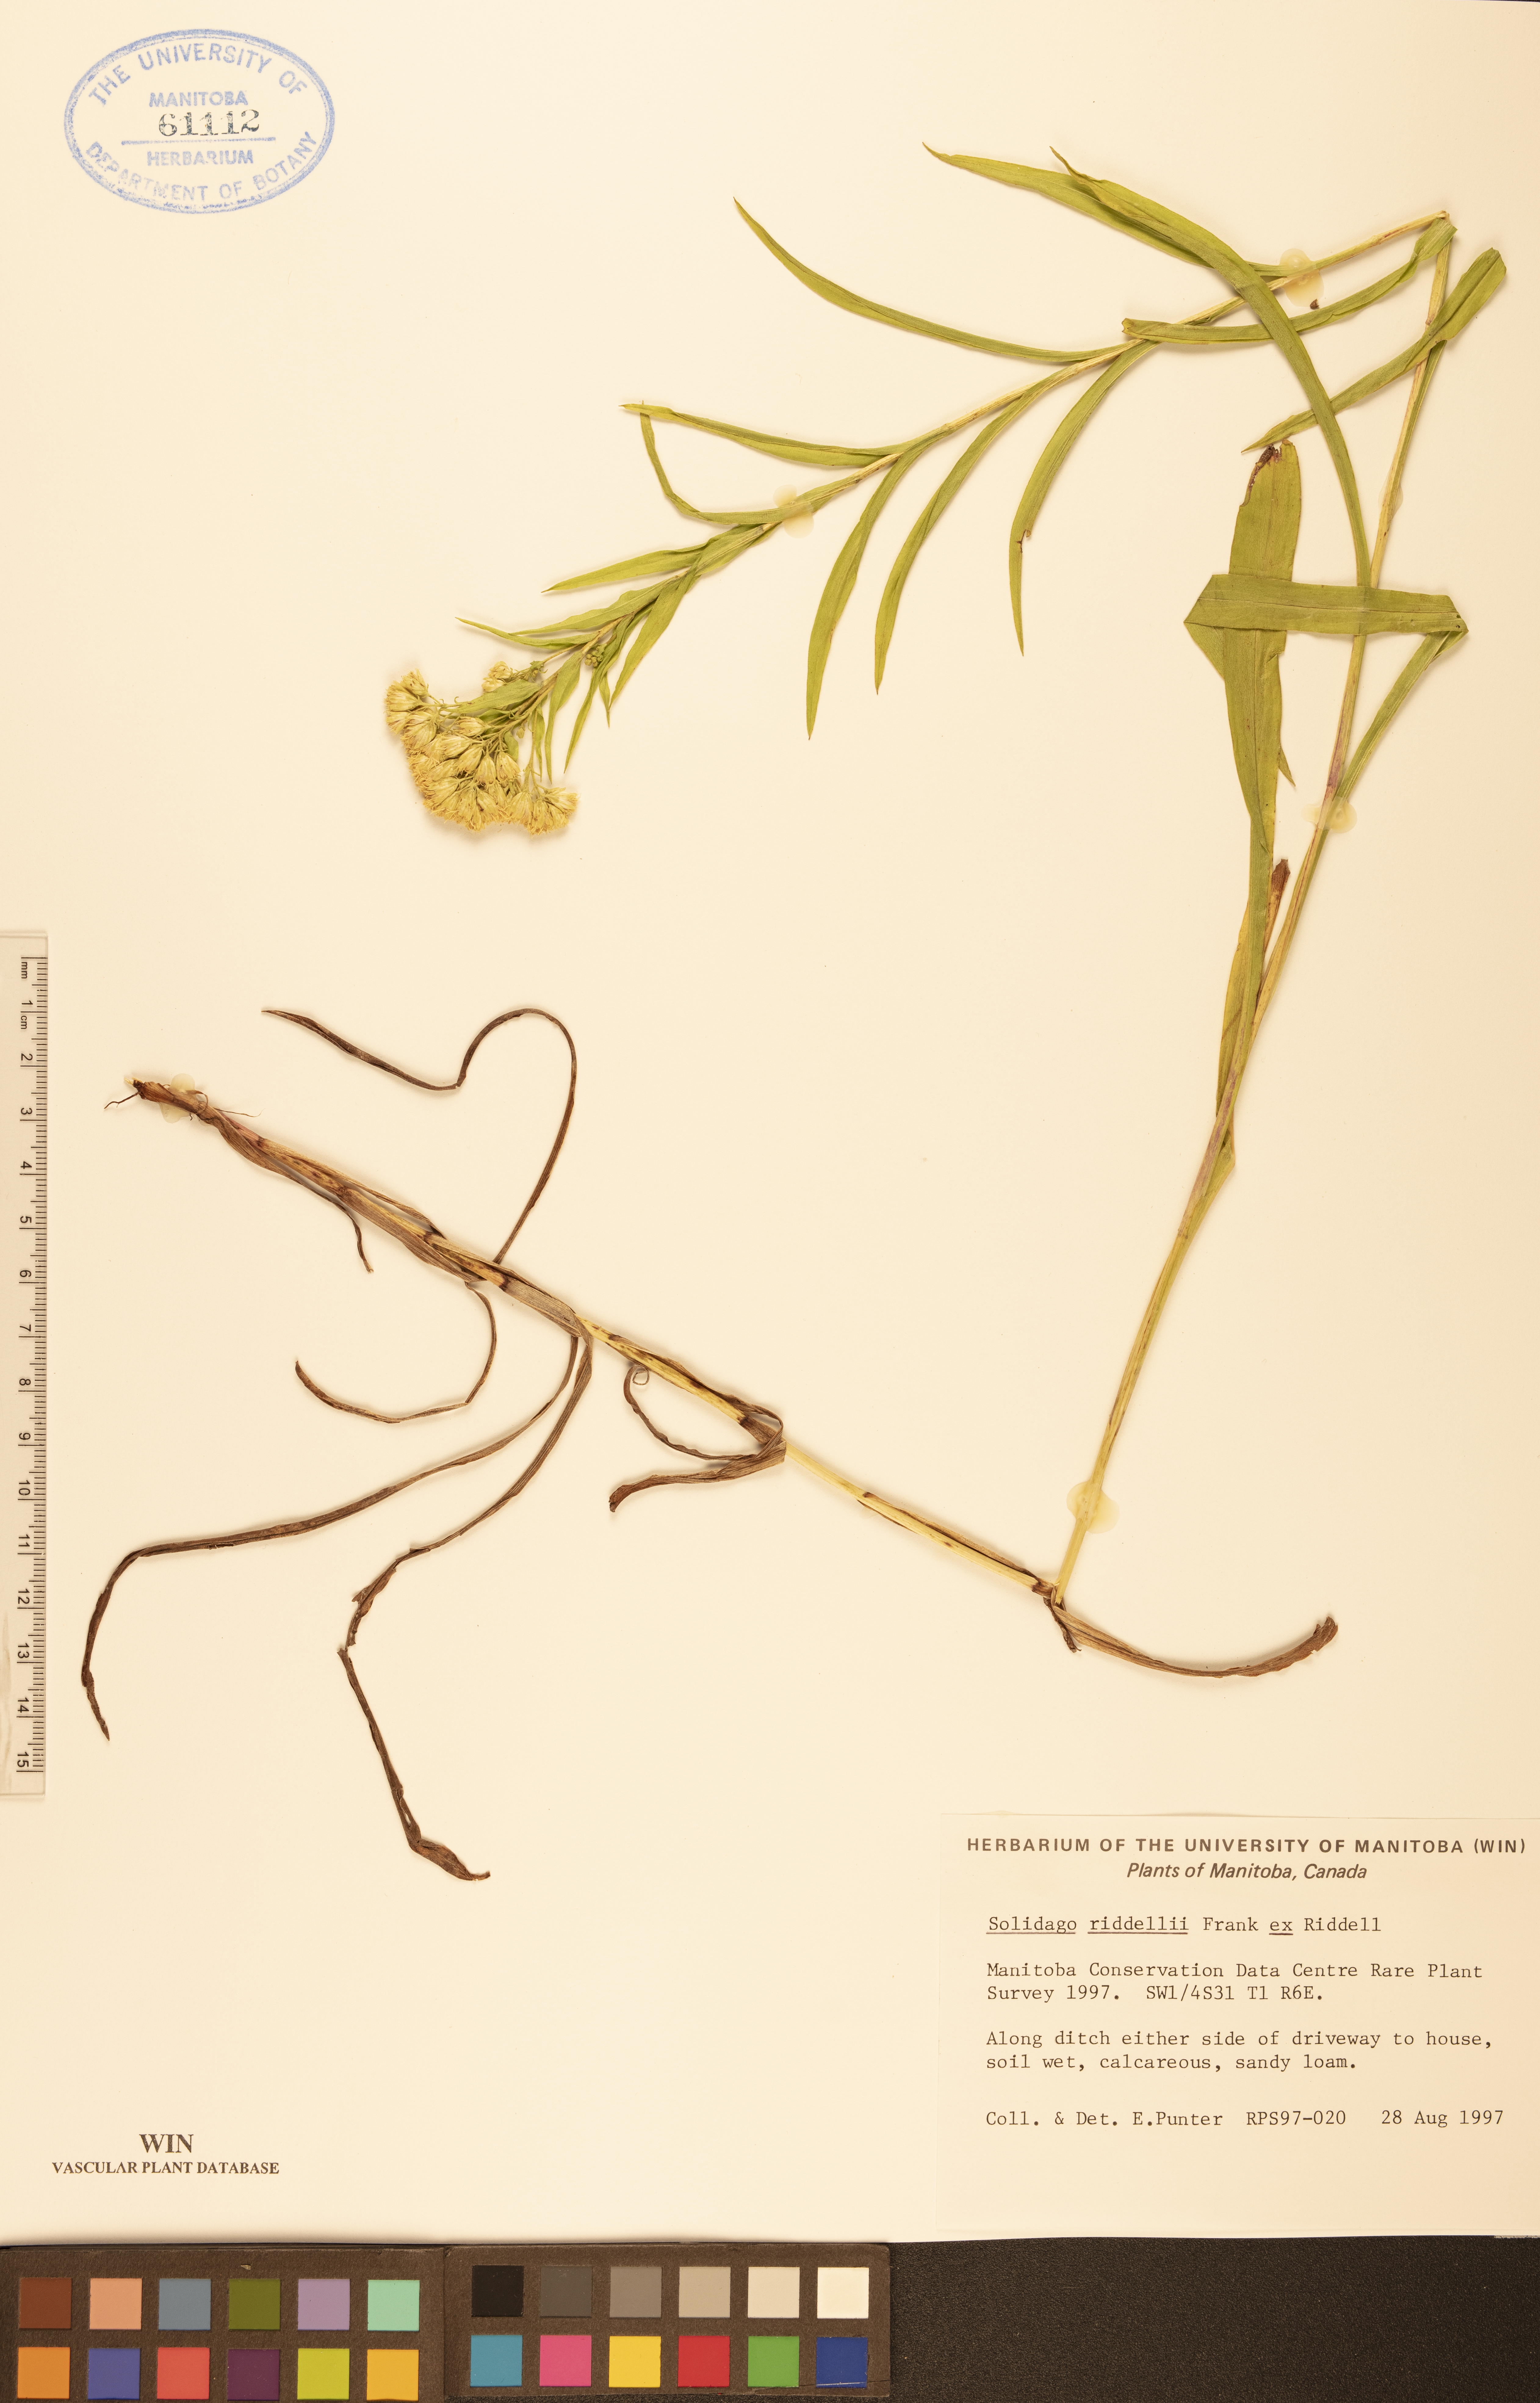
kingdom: Plantae
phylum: Tracheophyta
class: Magnoliopsida
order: Asterales
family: Asteraceae
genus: Solidago
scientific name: Solidago riddellii
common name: Riddell's goldenrod
